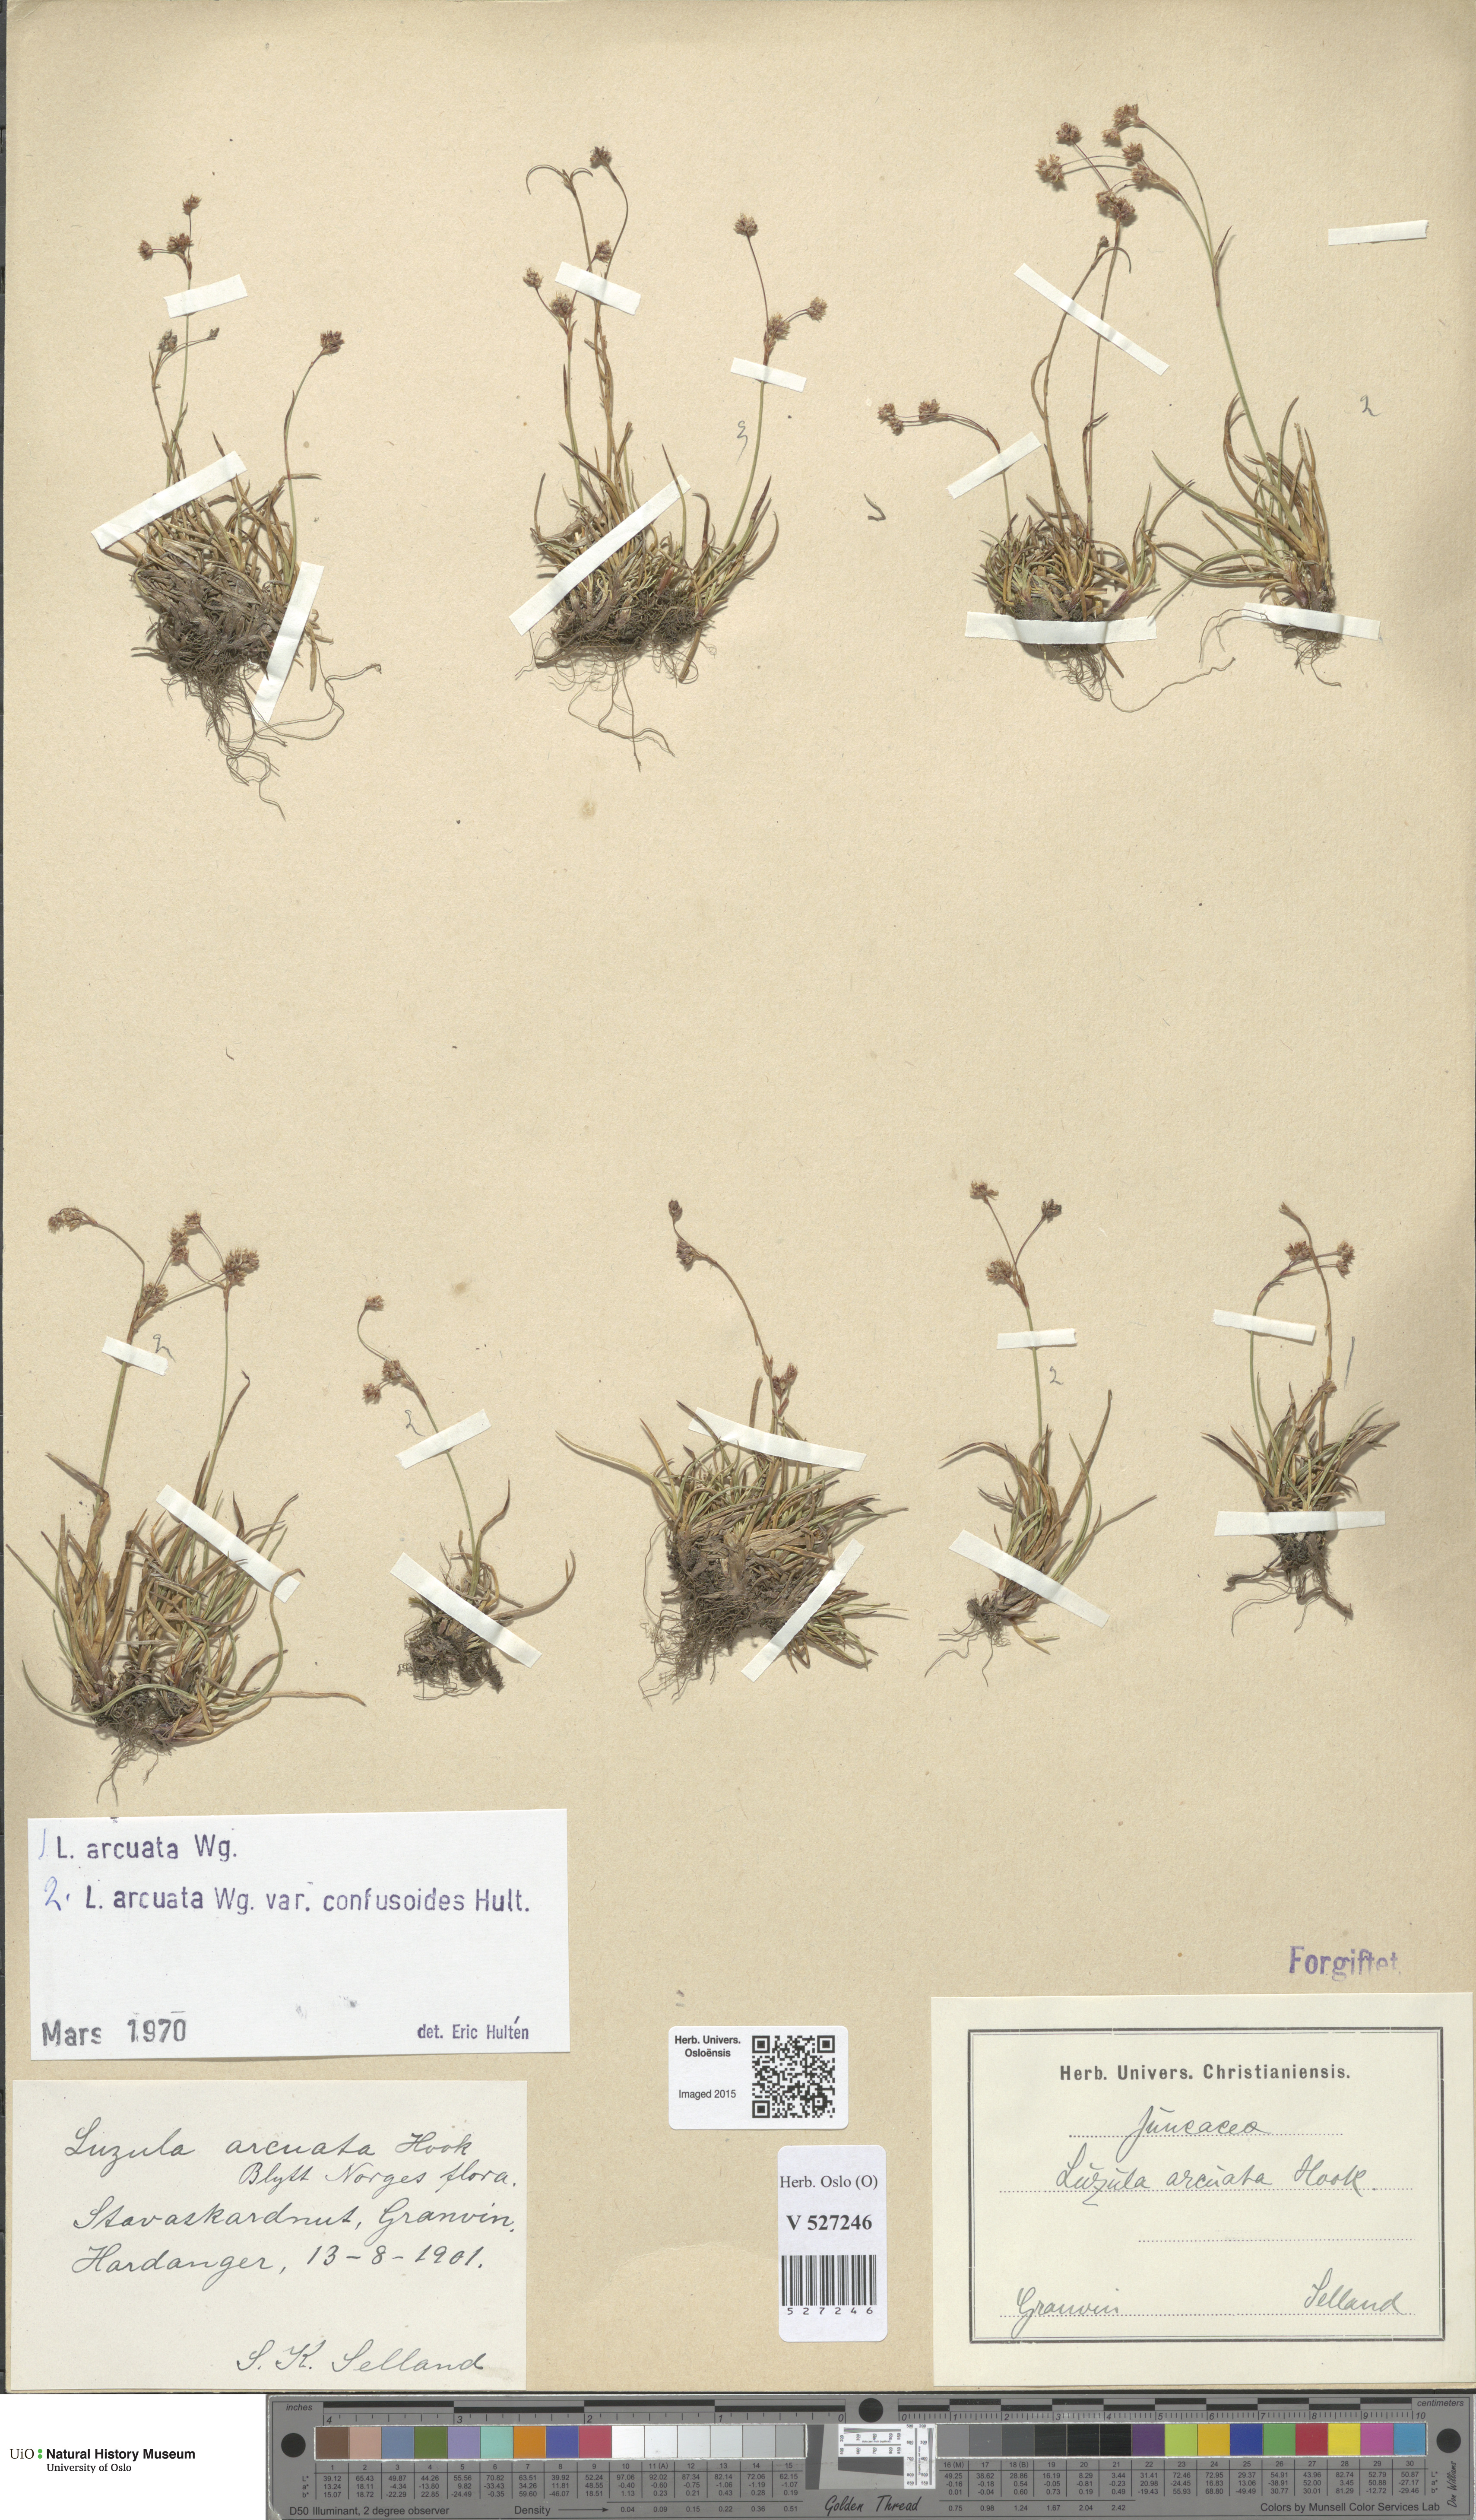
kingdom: Plantae
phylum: Tracheophyta
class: Liliopsida
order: Poales
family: Juncaceae
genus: Luzula
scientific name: Luzula arcuata
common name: Curved wood-rush
